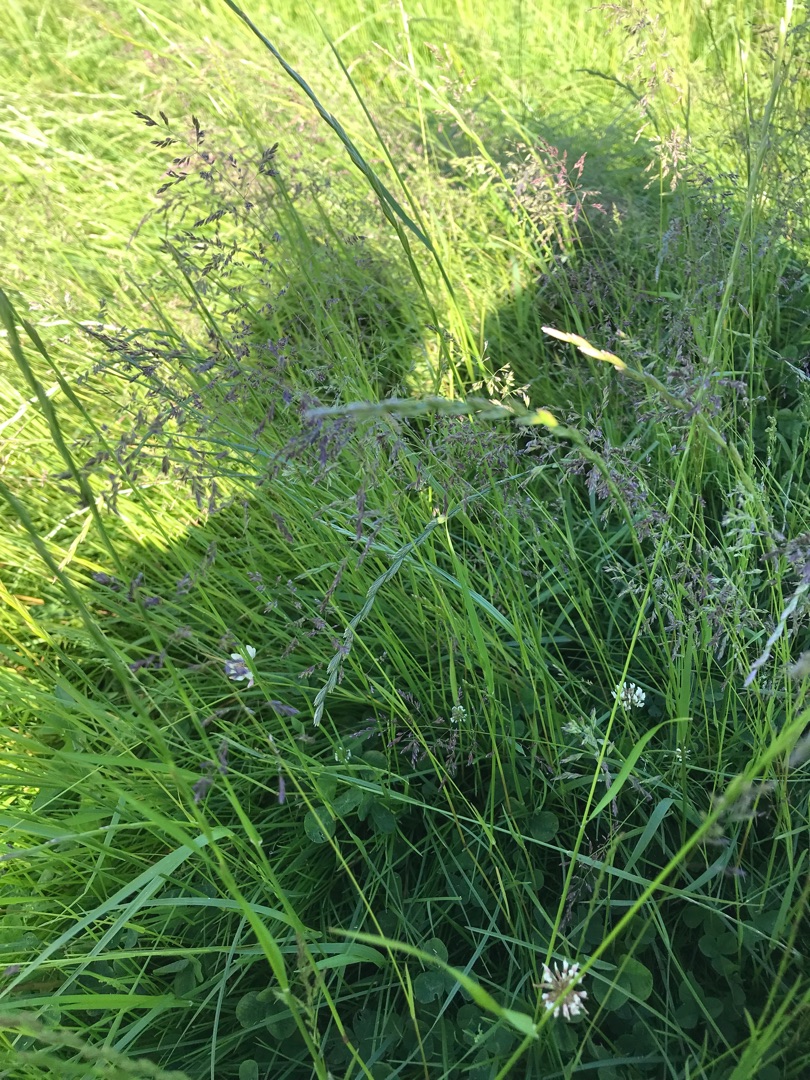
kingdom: Plantae
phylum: Tracheophyta
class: Liliopsida
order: Poales
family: Poaceae
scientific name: Poaceae
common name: Græsfamilien
